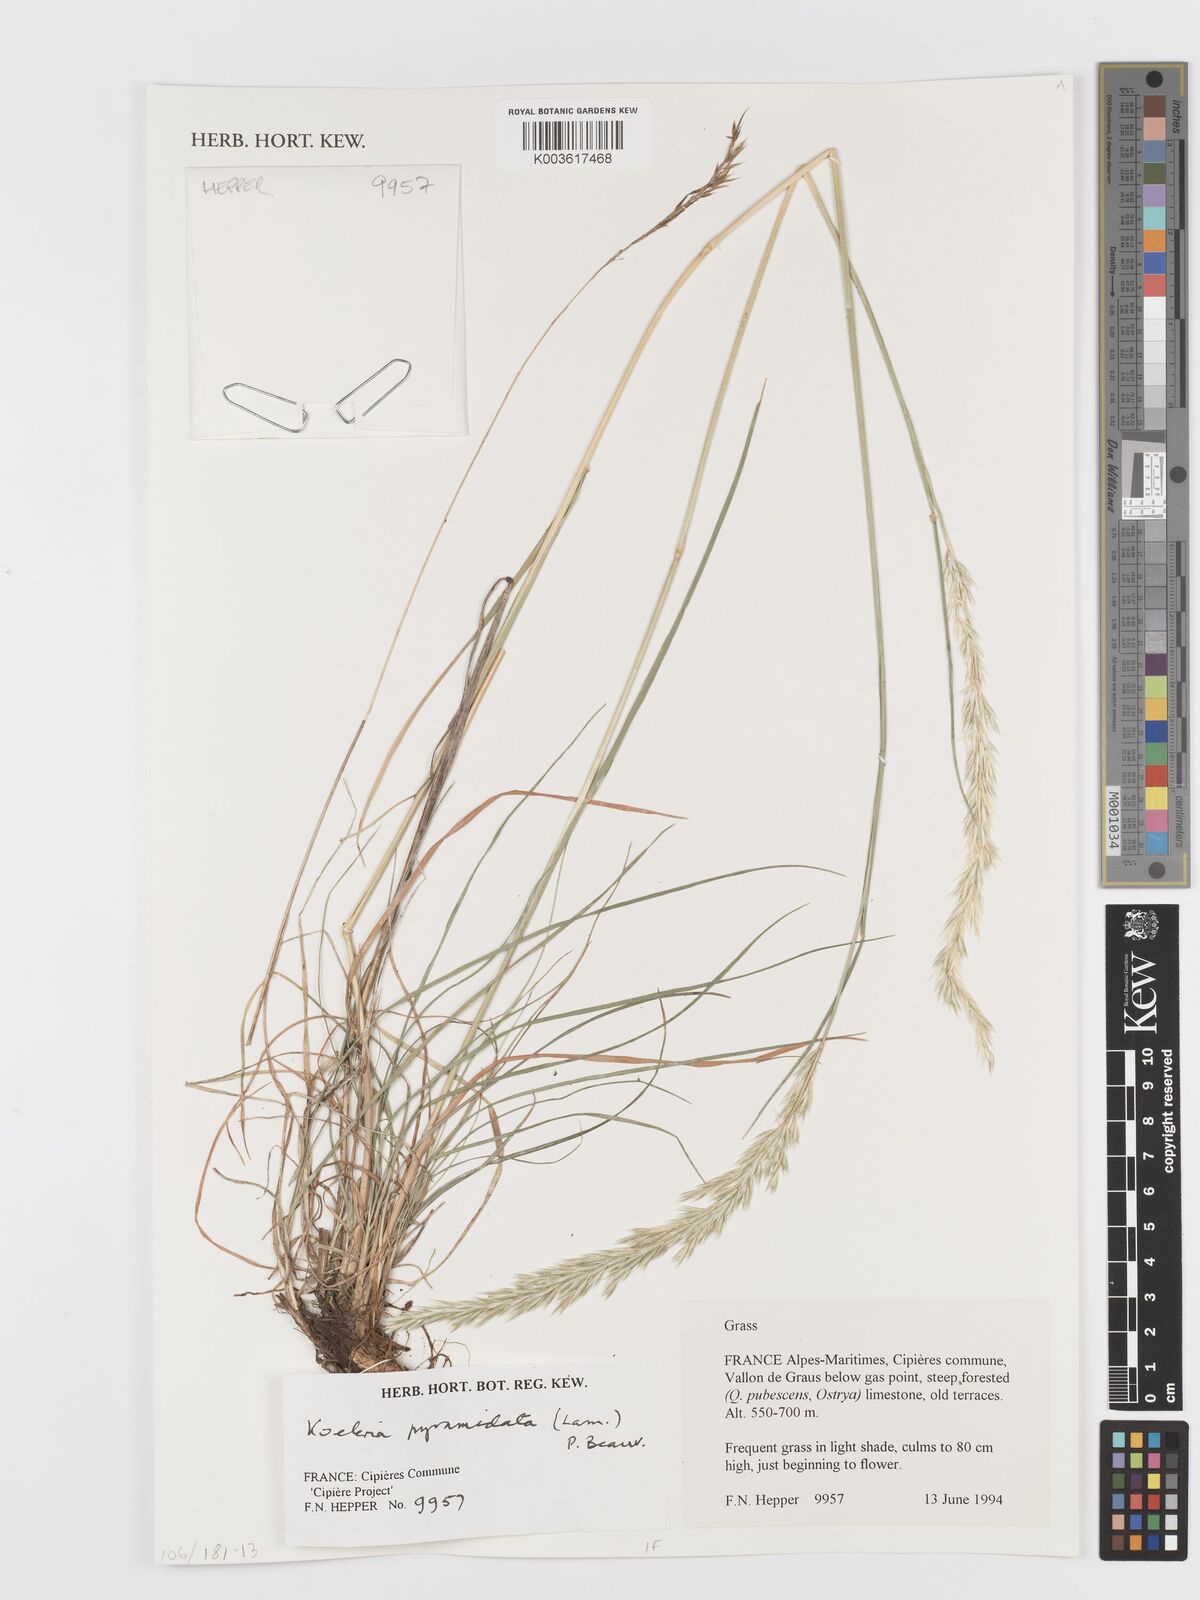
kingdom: Plantae
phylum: Tracheophyta
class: Liliopsida
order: Poales
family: Poaceae
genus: Koeleria
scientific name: Koeleria pyramidata
